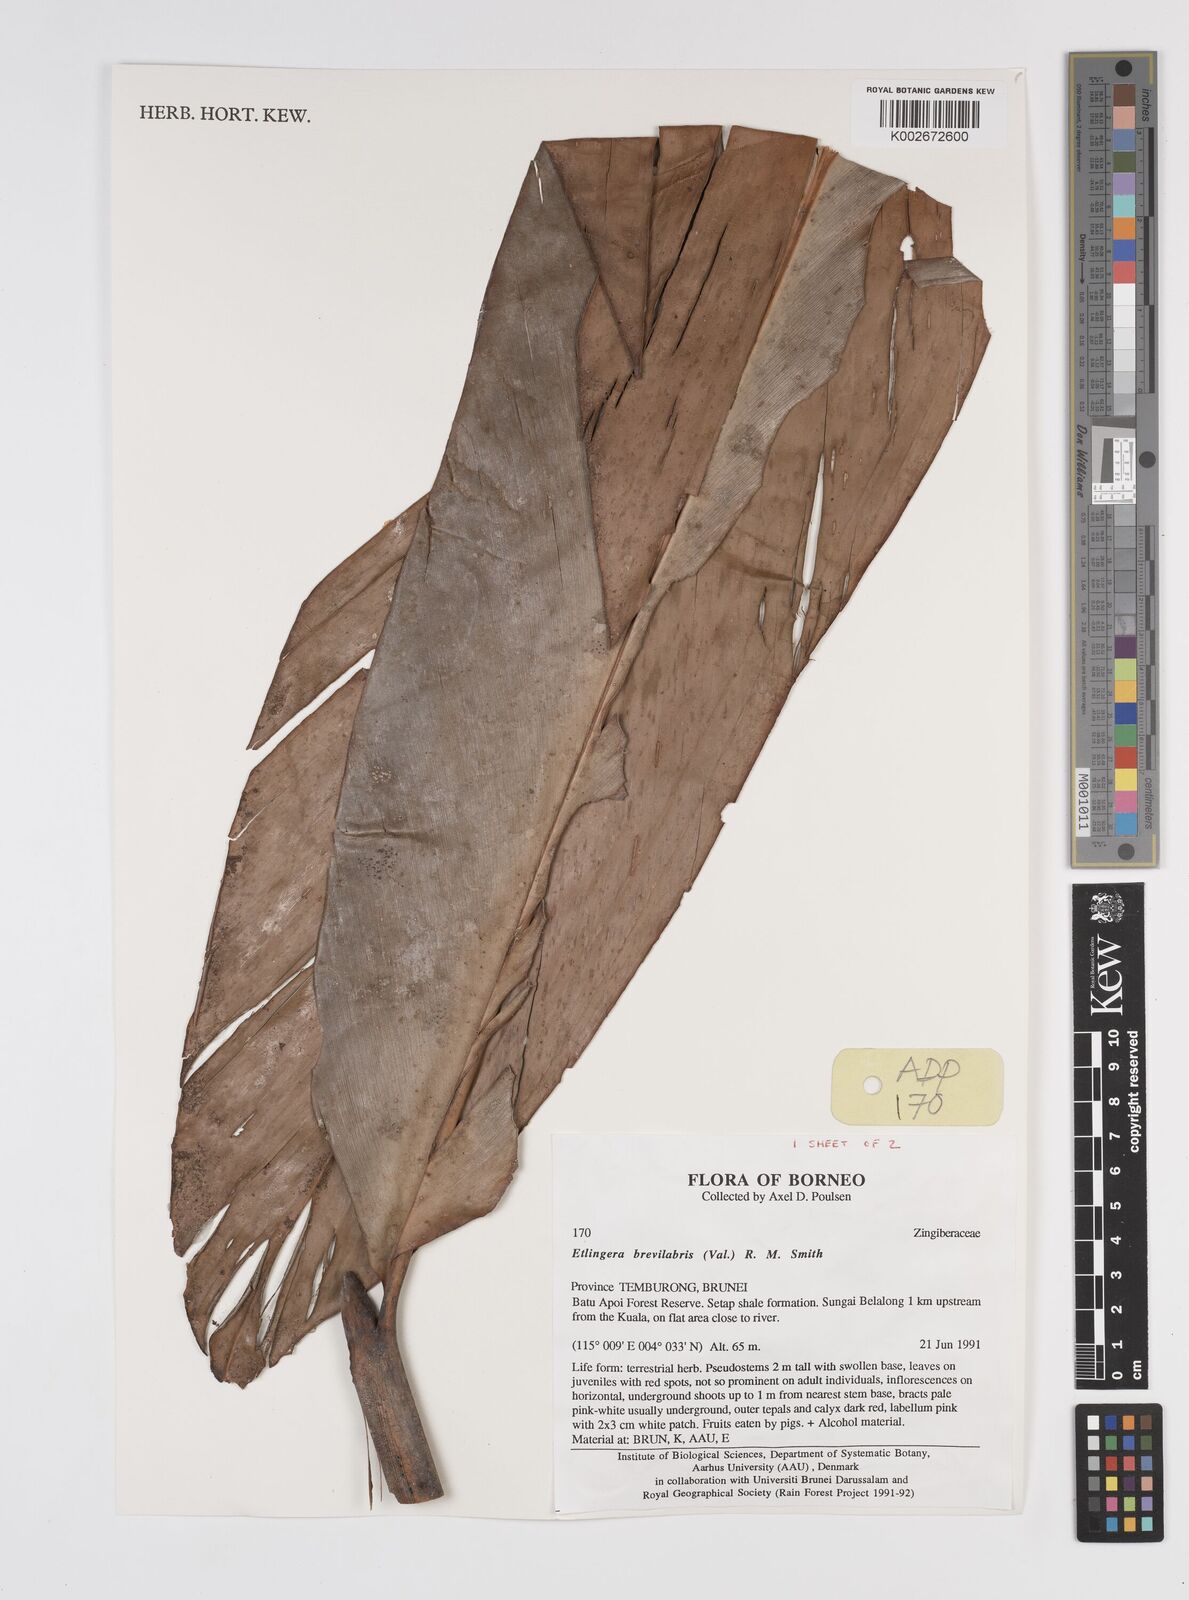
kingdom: Plantae
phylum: Tracheophyta
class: Liliopsida
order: Zingiberales
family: Zingiberaceae
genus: Etlingera
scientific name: Etlingera
